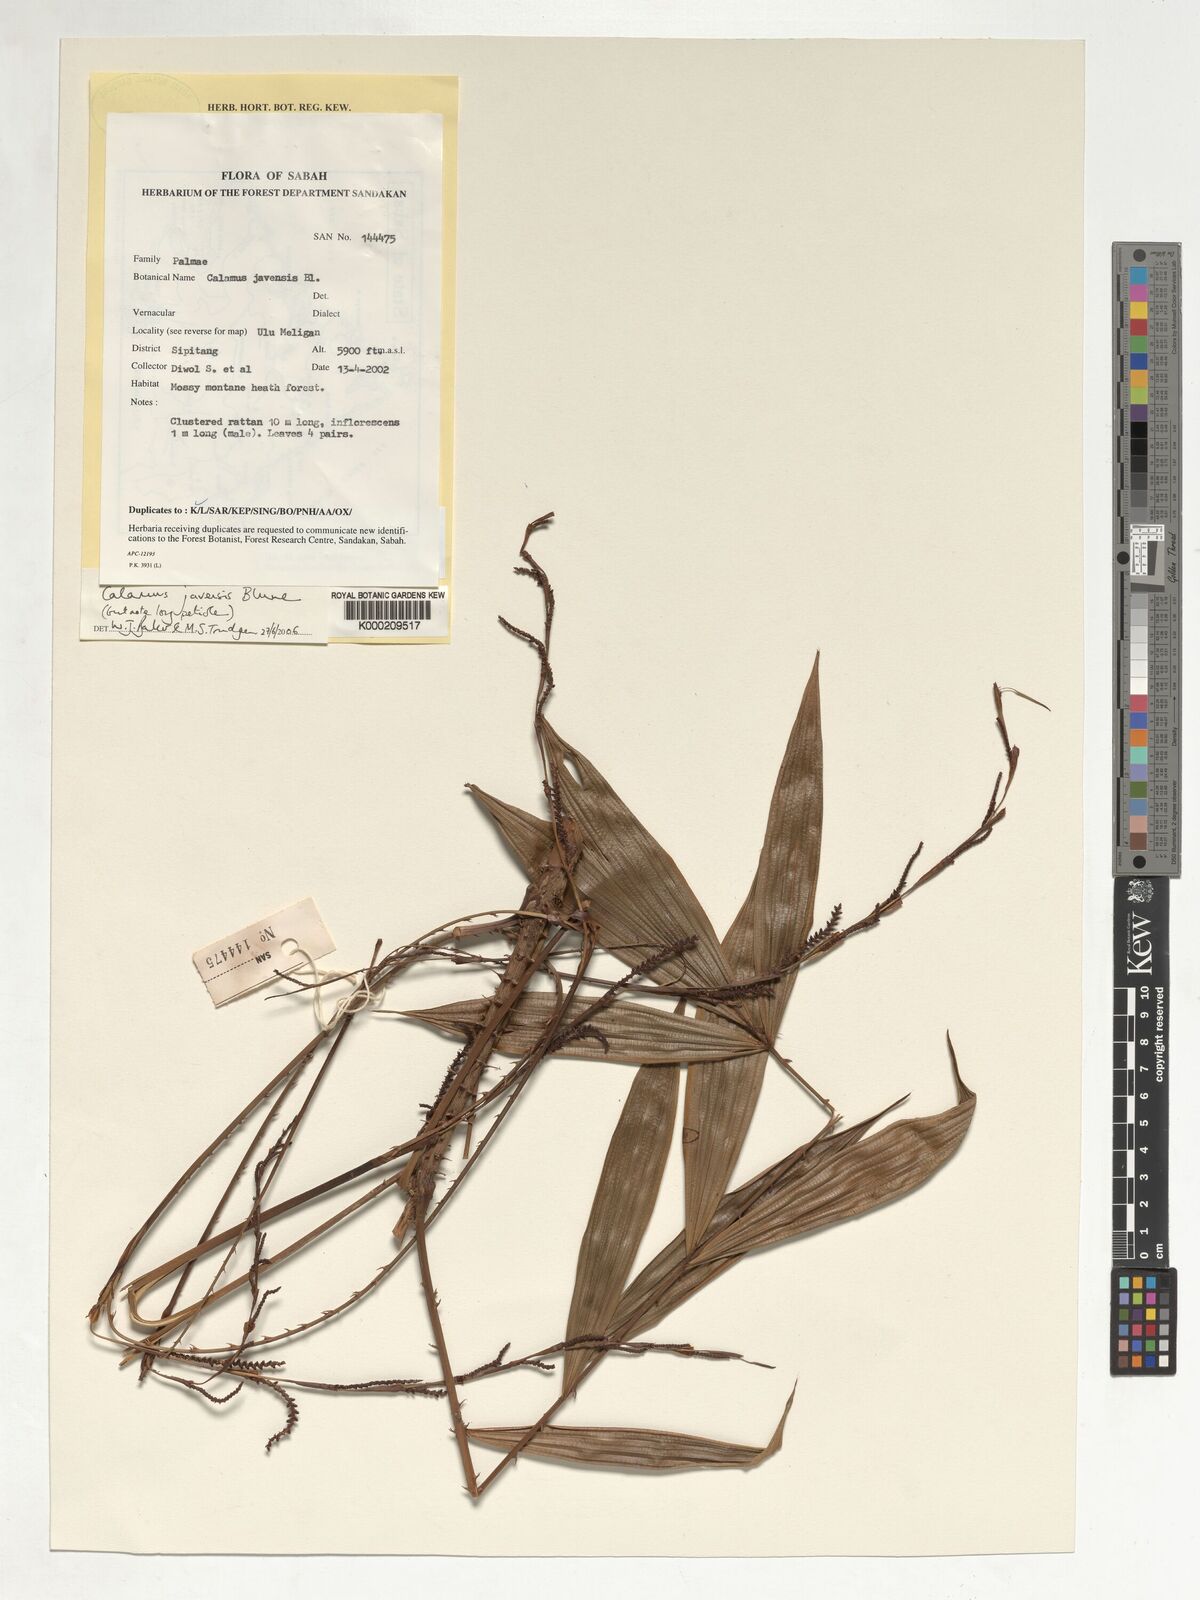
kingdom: Plantae
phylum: Tracheophyta
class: Liliopsida
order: Arecales
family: Arecaceae
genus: Calamus
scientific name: Calamus javensis
